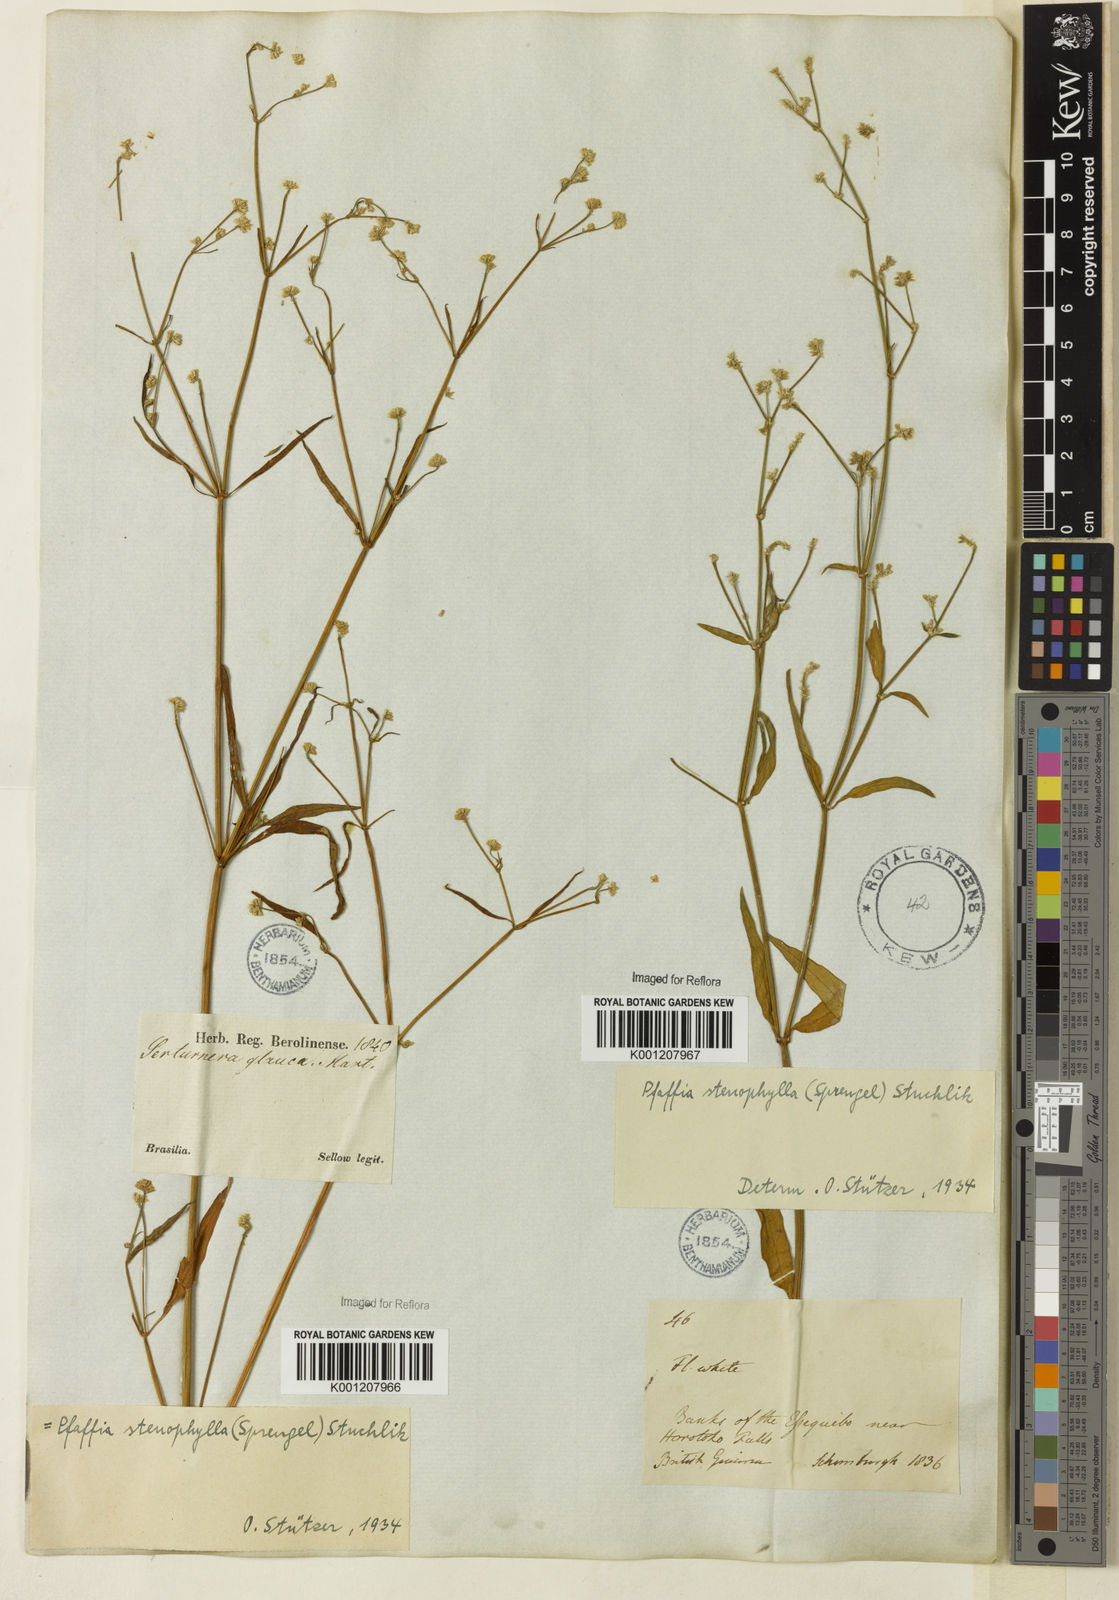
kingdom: Plantae
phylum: Tracheophyta
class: Magnoliopsida
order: Caryophyllales
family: Amaranthaceae
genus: Pfaffia
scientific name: Pfaffia
